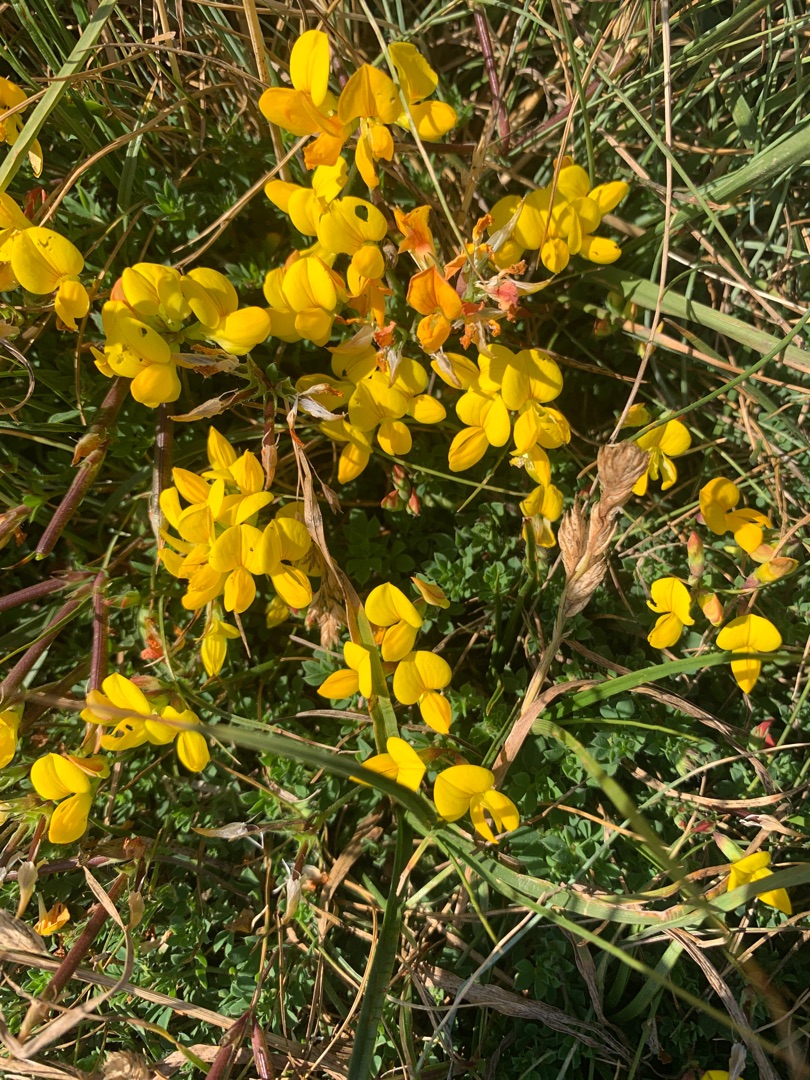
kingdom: Plantae
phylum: Tracheophyta
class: Magnoliopsida
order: Fabales
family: Fabaceae
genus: Lotus
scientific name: Lotus corniculatus
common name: Almindelig kællingetand
